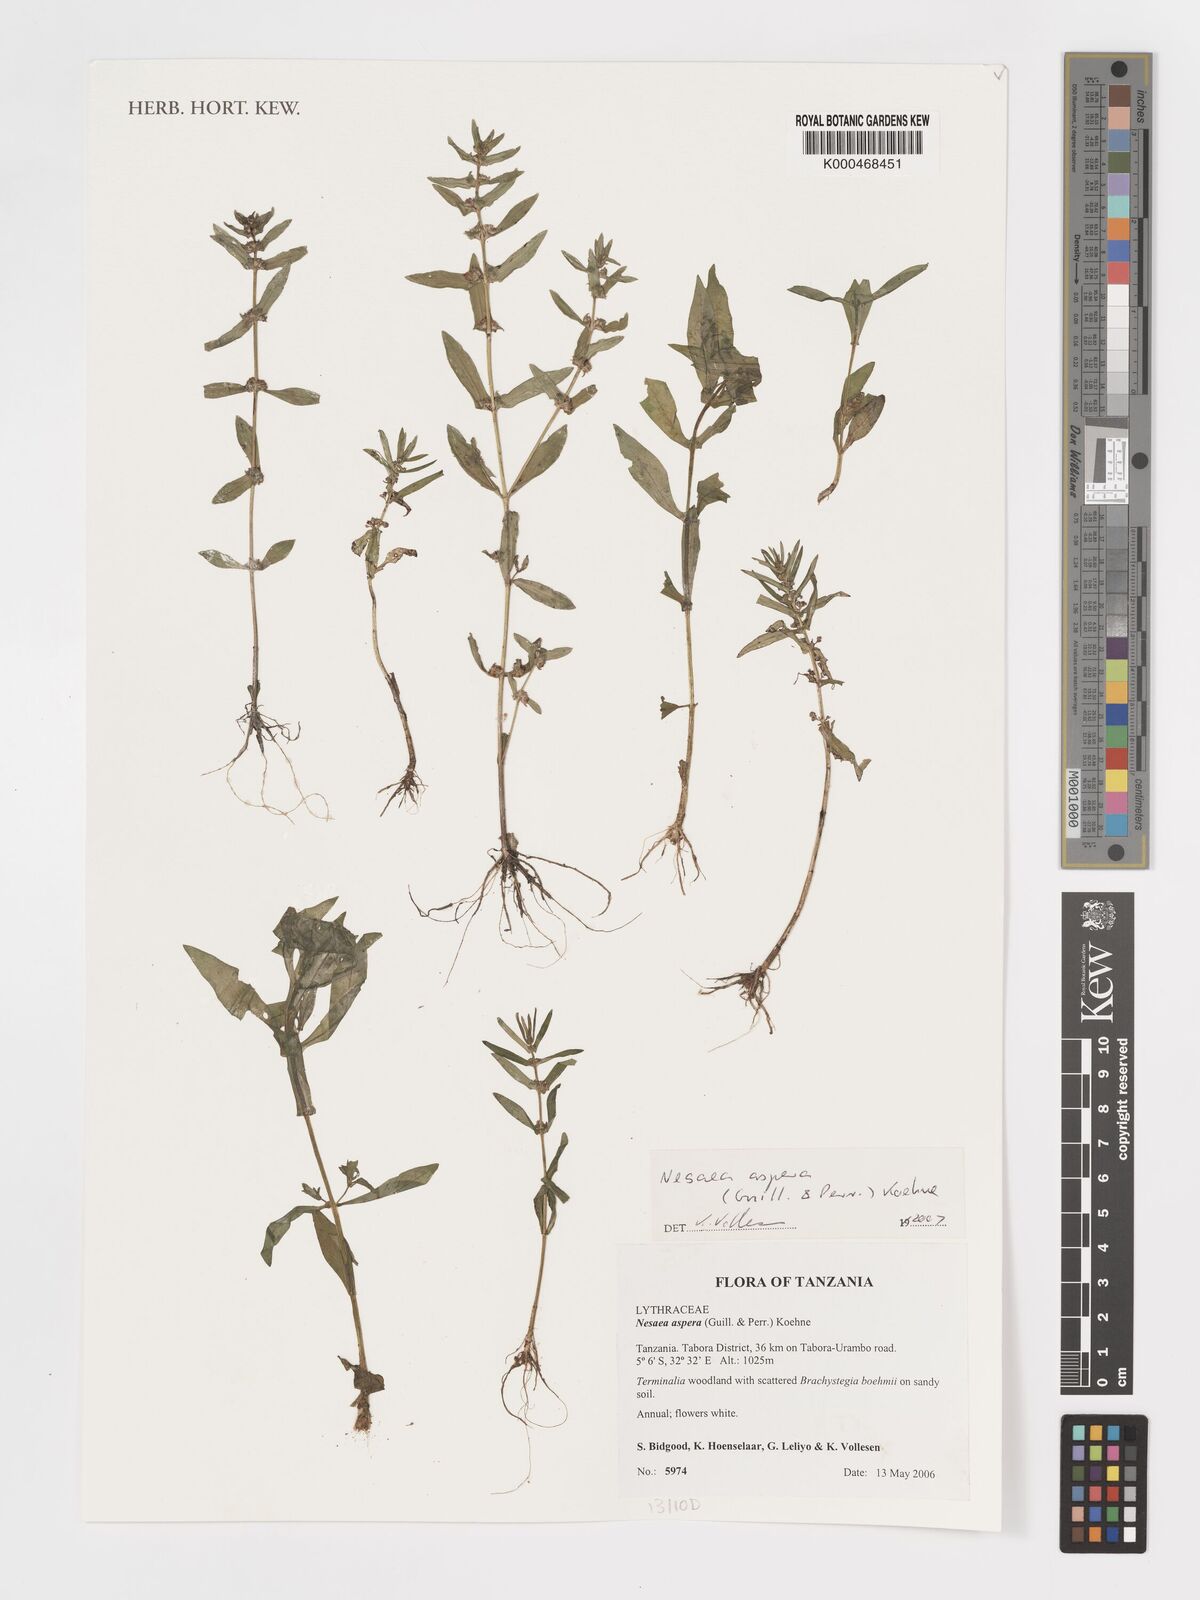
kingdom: Plantae
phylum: Tracheophyta
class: Magnoliopsida
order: Myrtales
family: Lythraceae
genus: Ammannia
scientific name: Ammannia aspera
